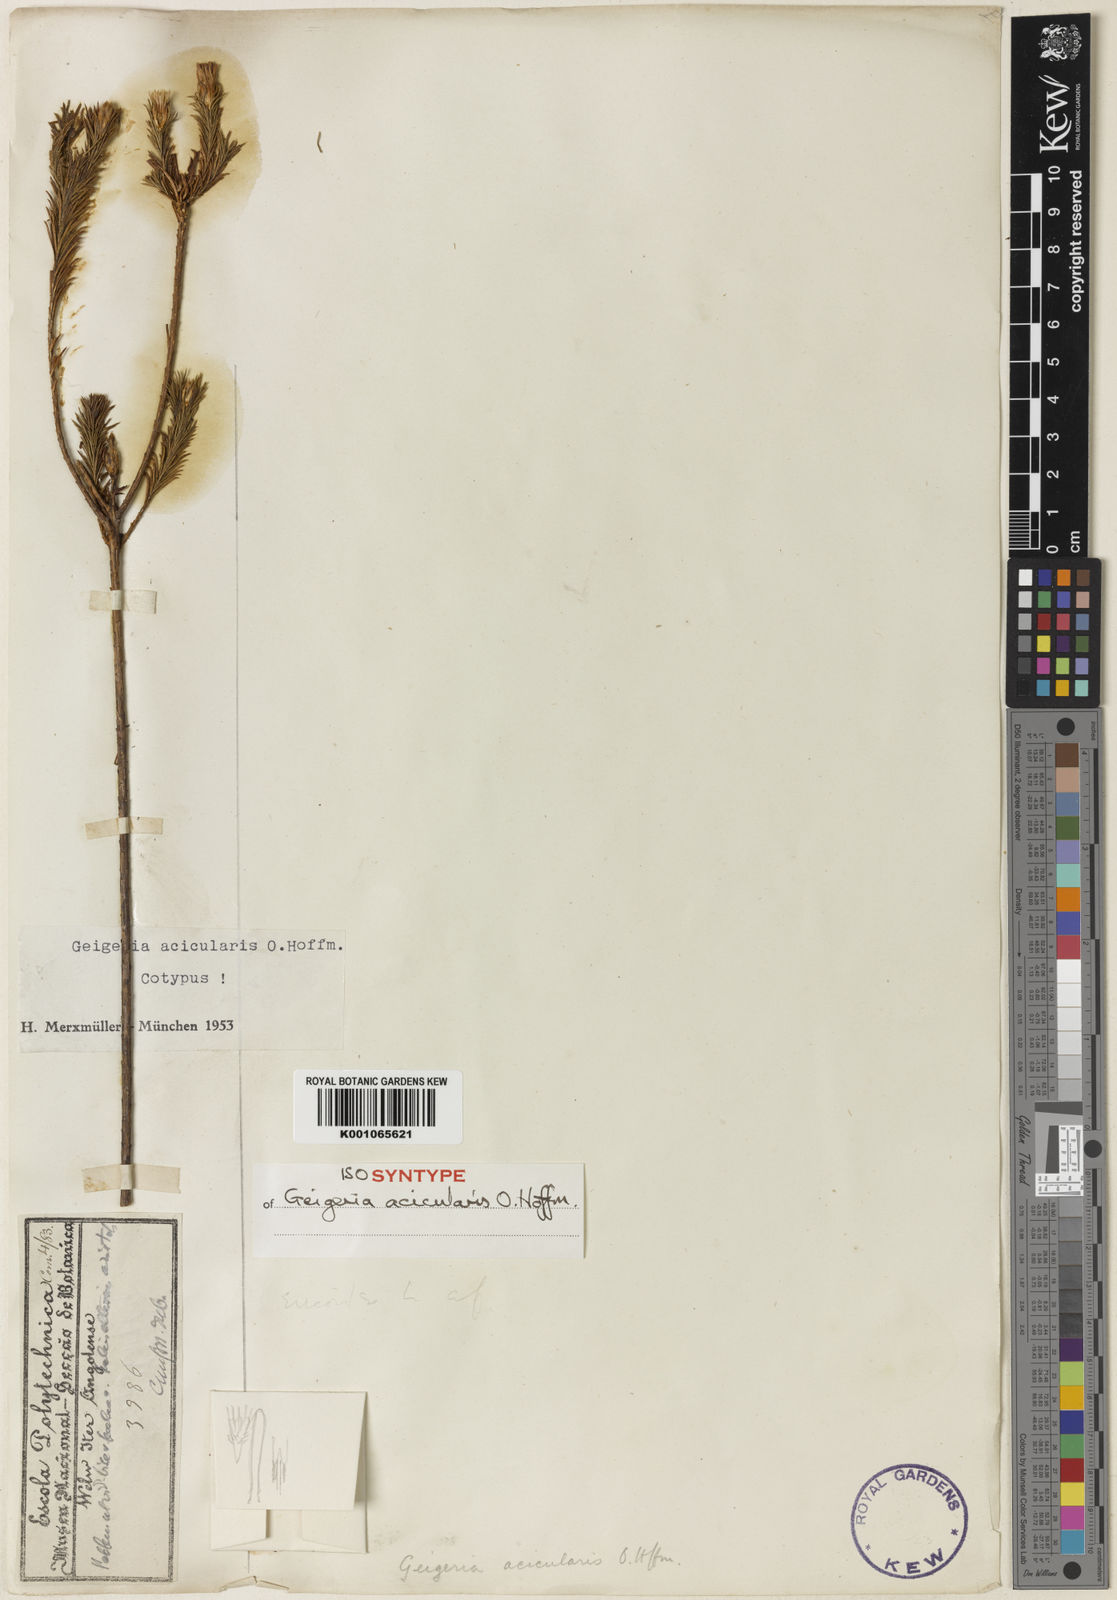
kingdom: Plantae
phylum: Tracheophyta
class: Magnoliopsida
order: Asterales
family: Asteraceae
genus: Geigeria
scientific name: Geigeria acicularis
